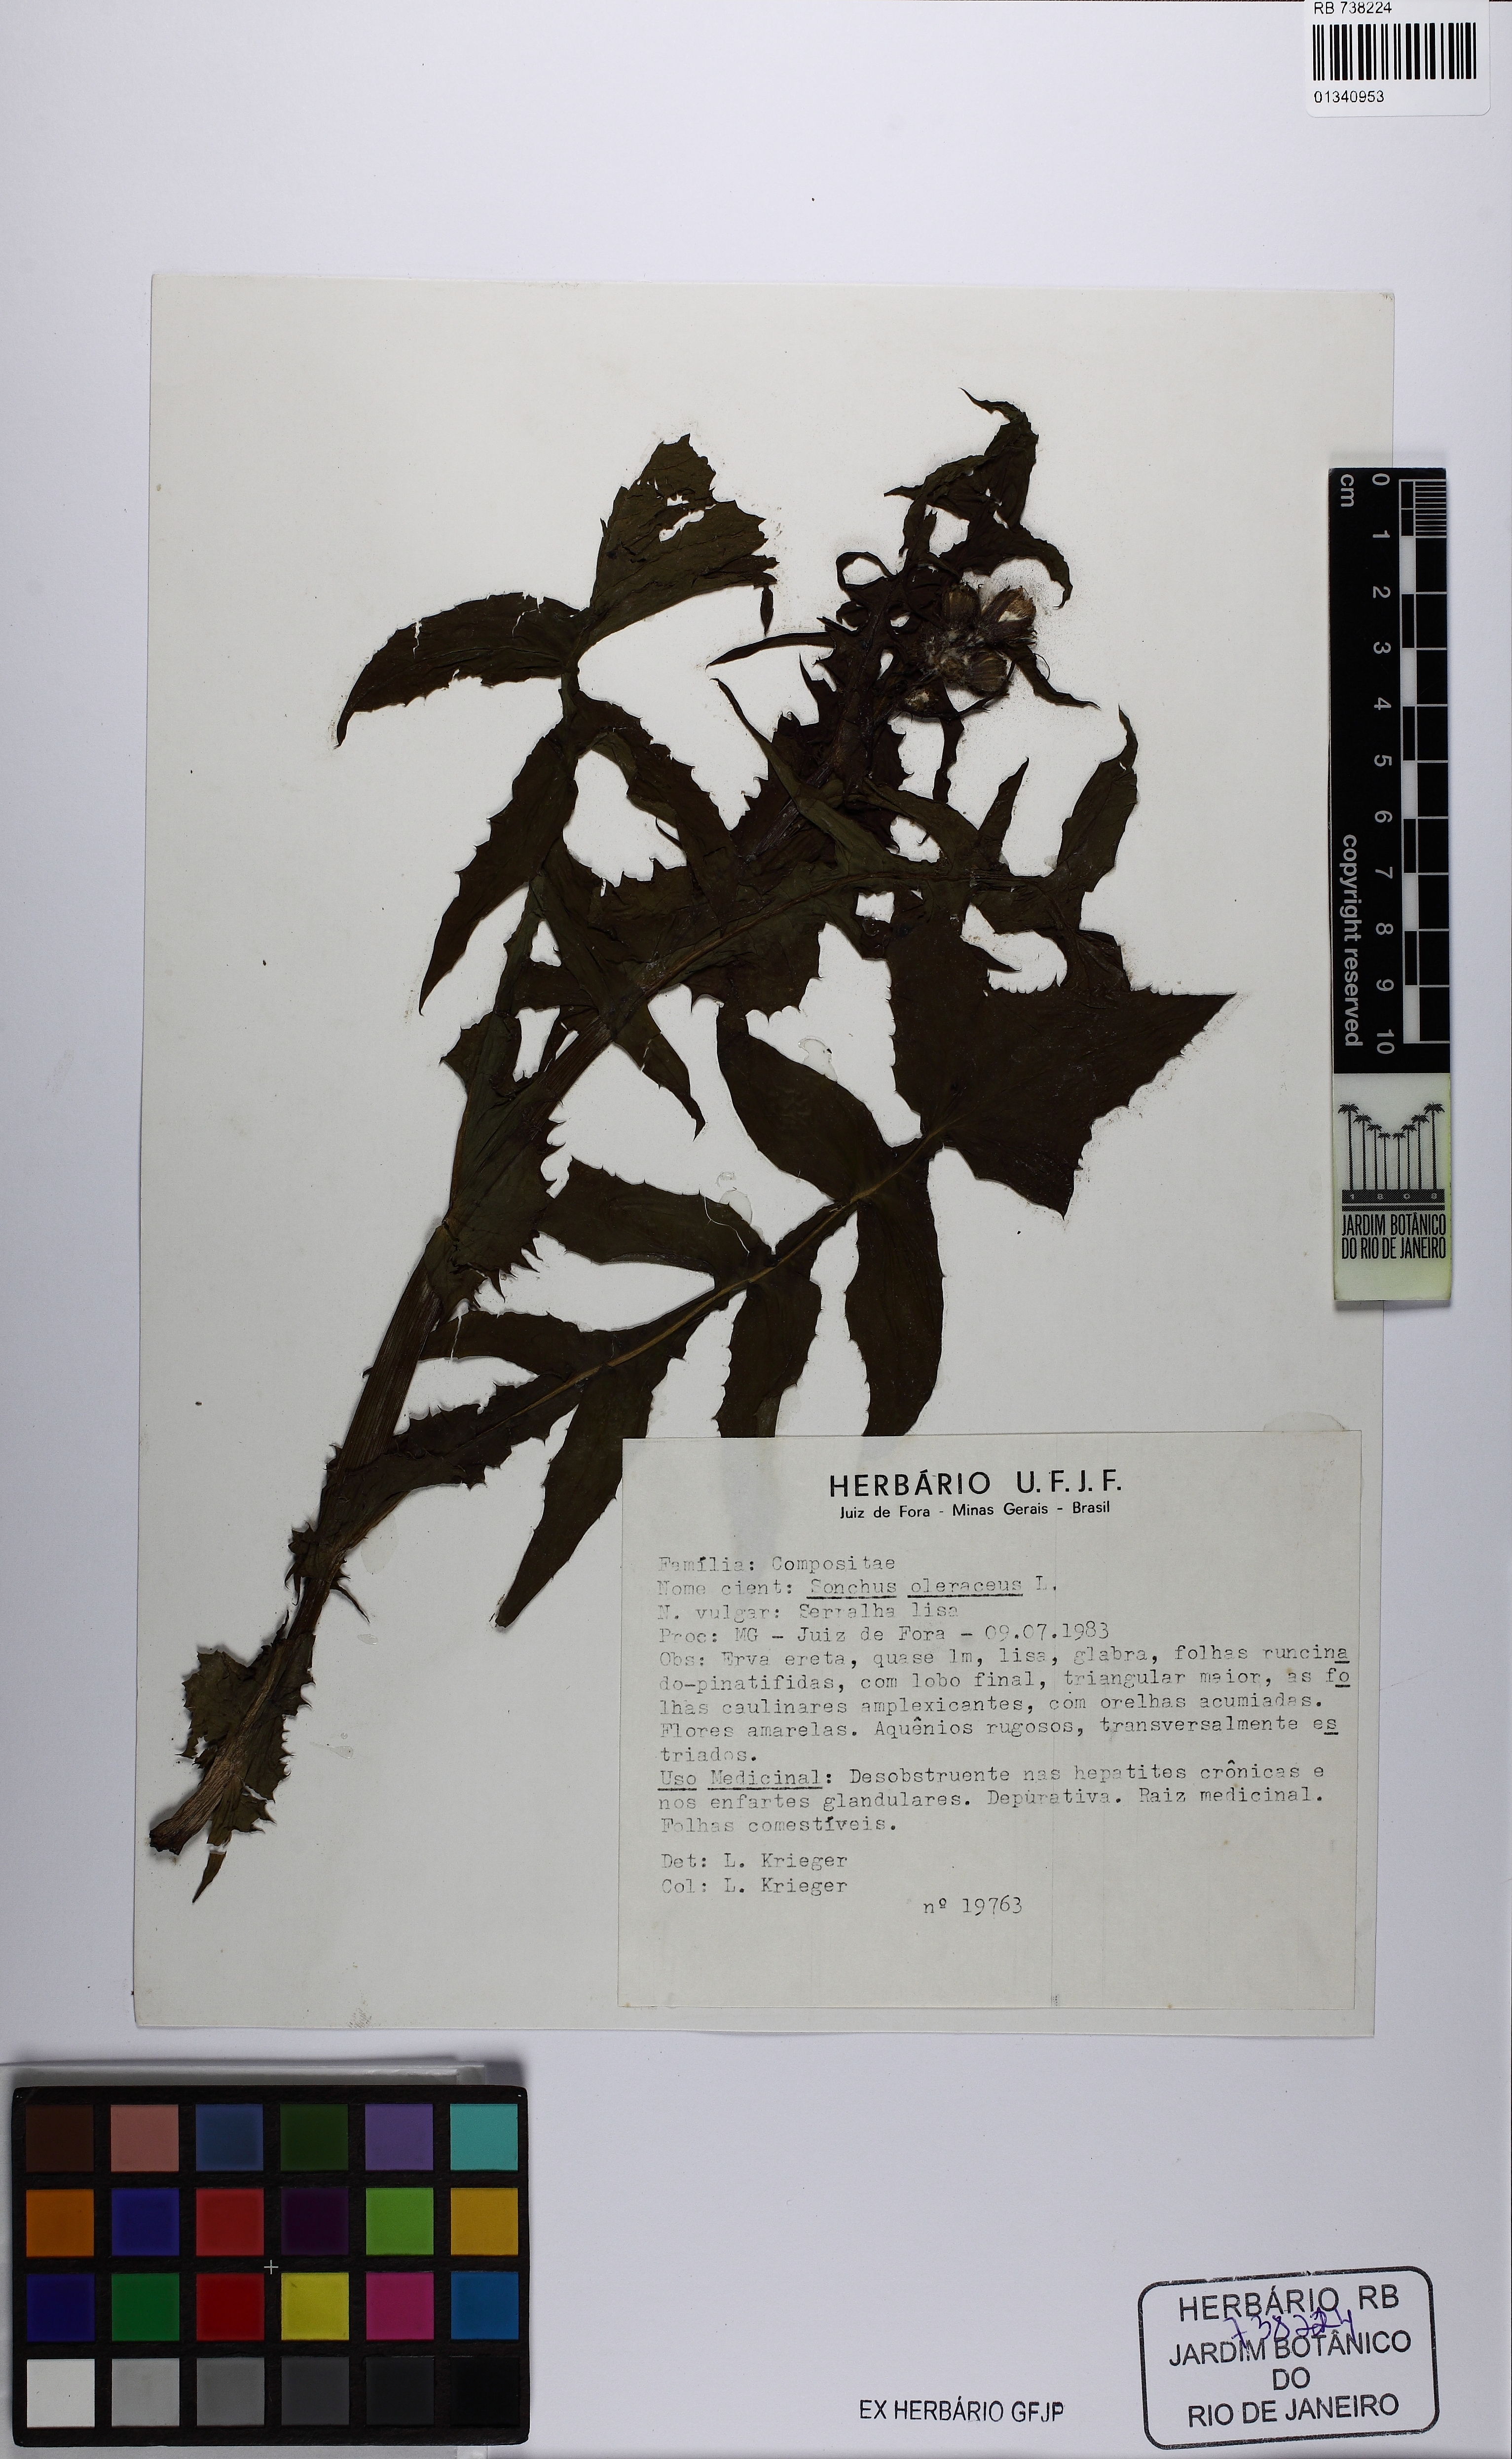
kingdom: Plantae
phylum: Tracheophyta
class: Magnoliopsida
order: Asterales
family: Asteraceae
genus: Sonchus
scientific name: Sonchus oleraceus
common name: Common sowthistle
